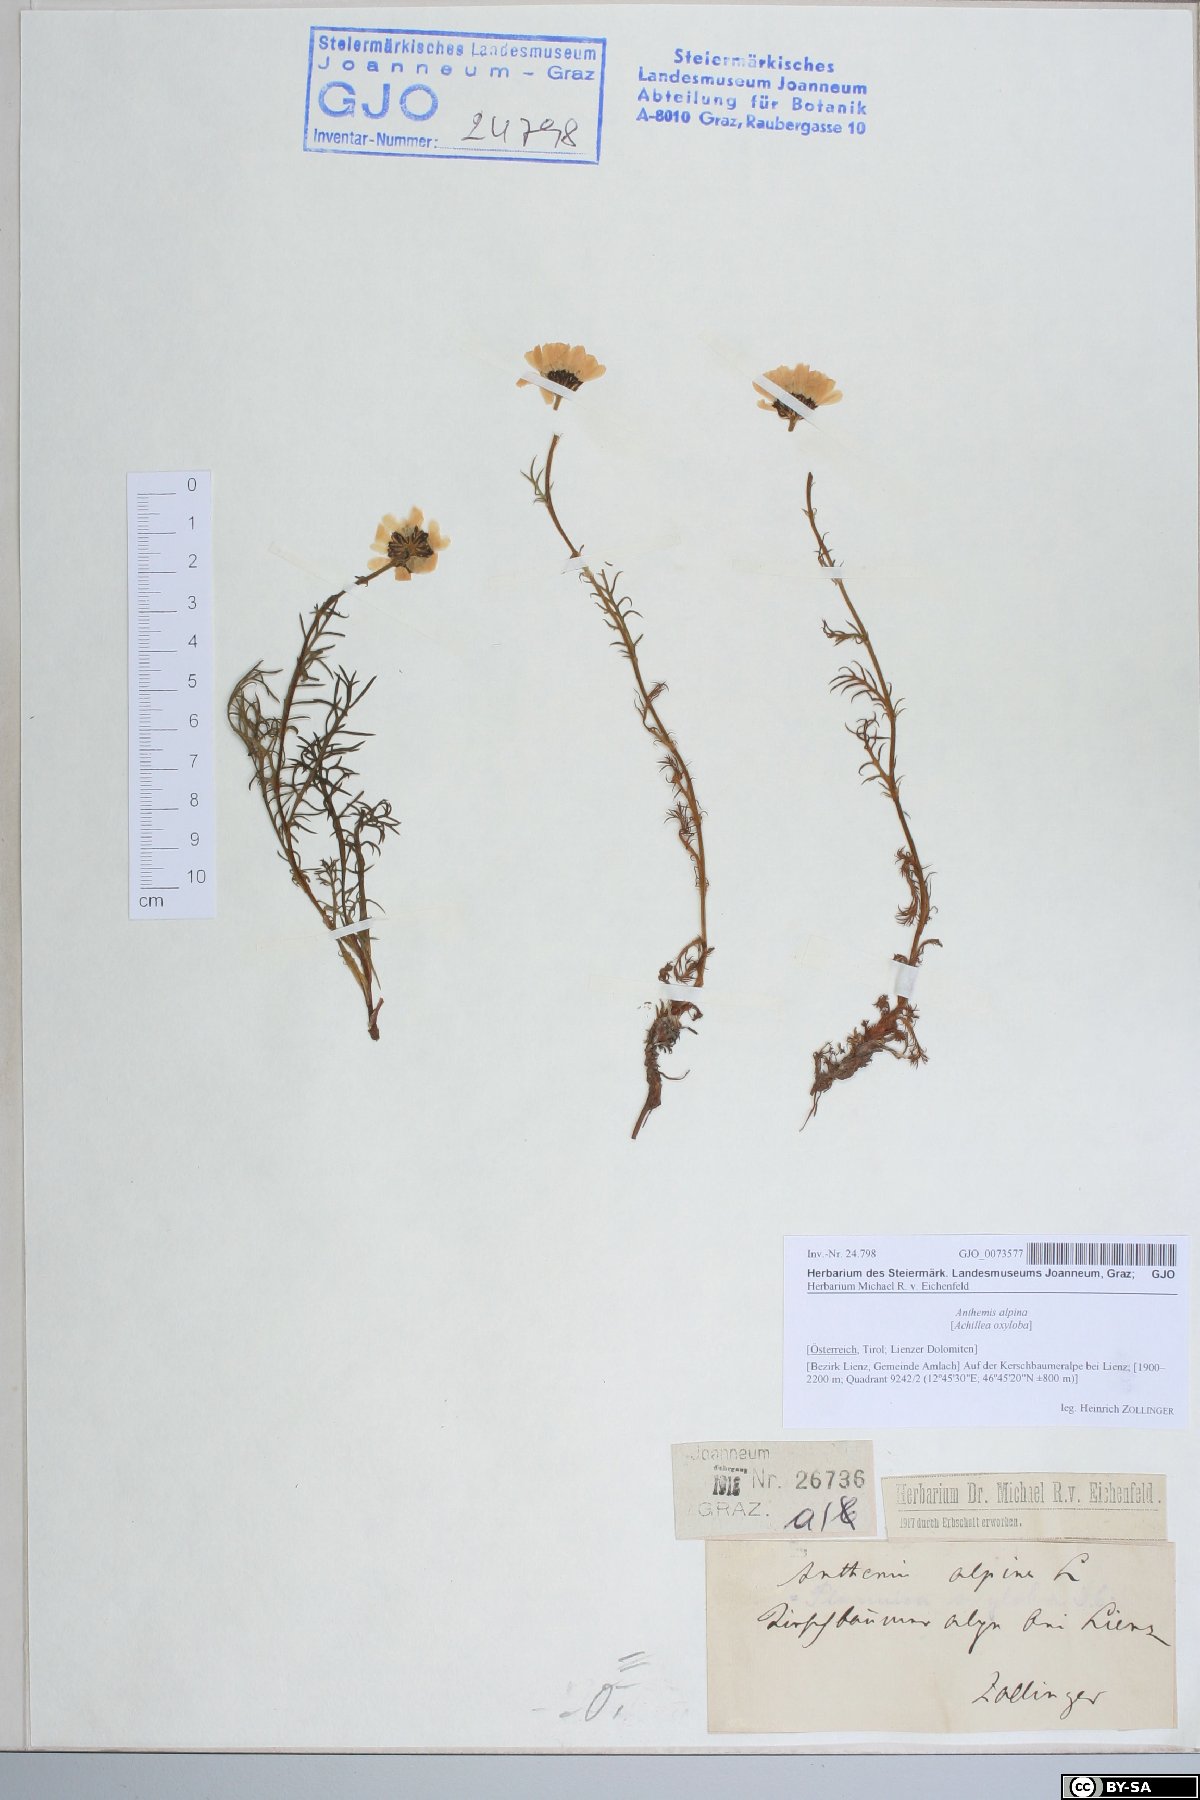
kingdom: Plantae
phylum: Tracheophyta
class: Magnoliopsida
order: Asterales
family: Asteraceae
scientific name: Asteraceae
